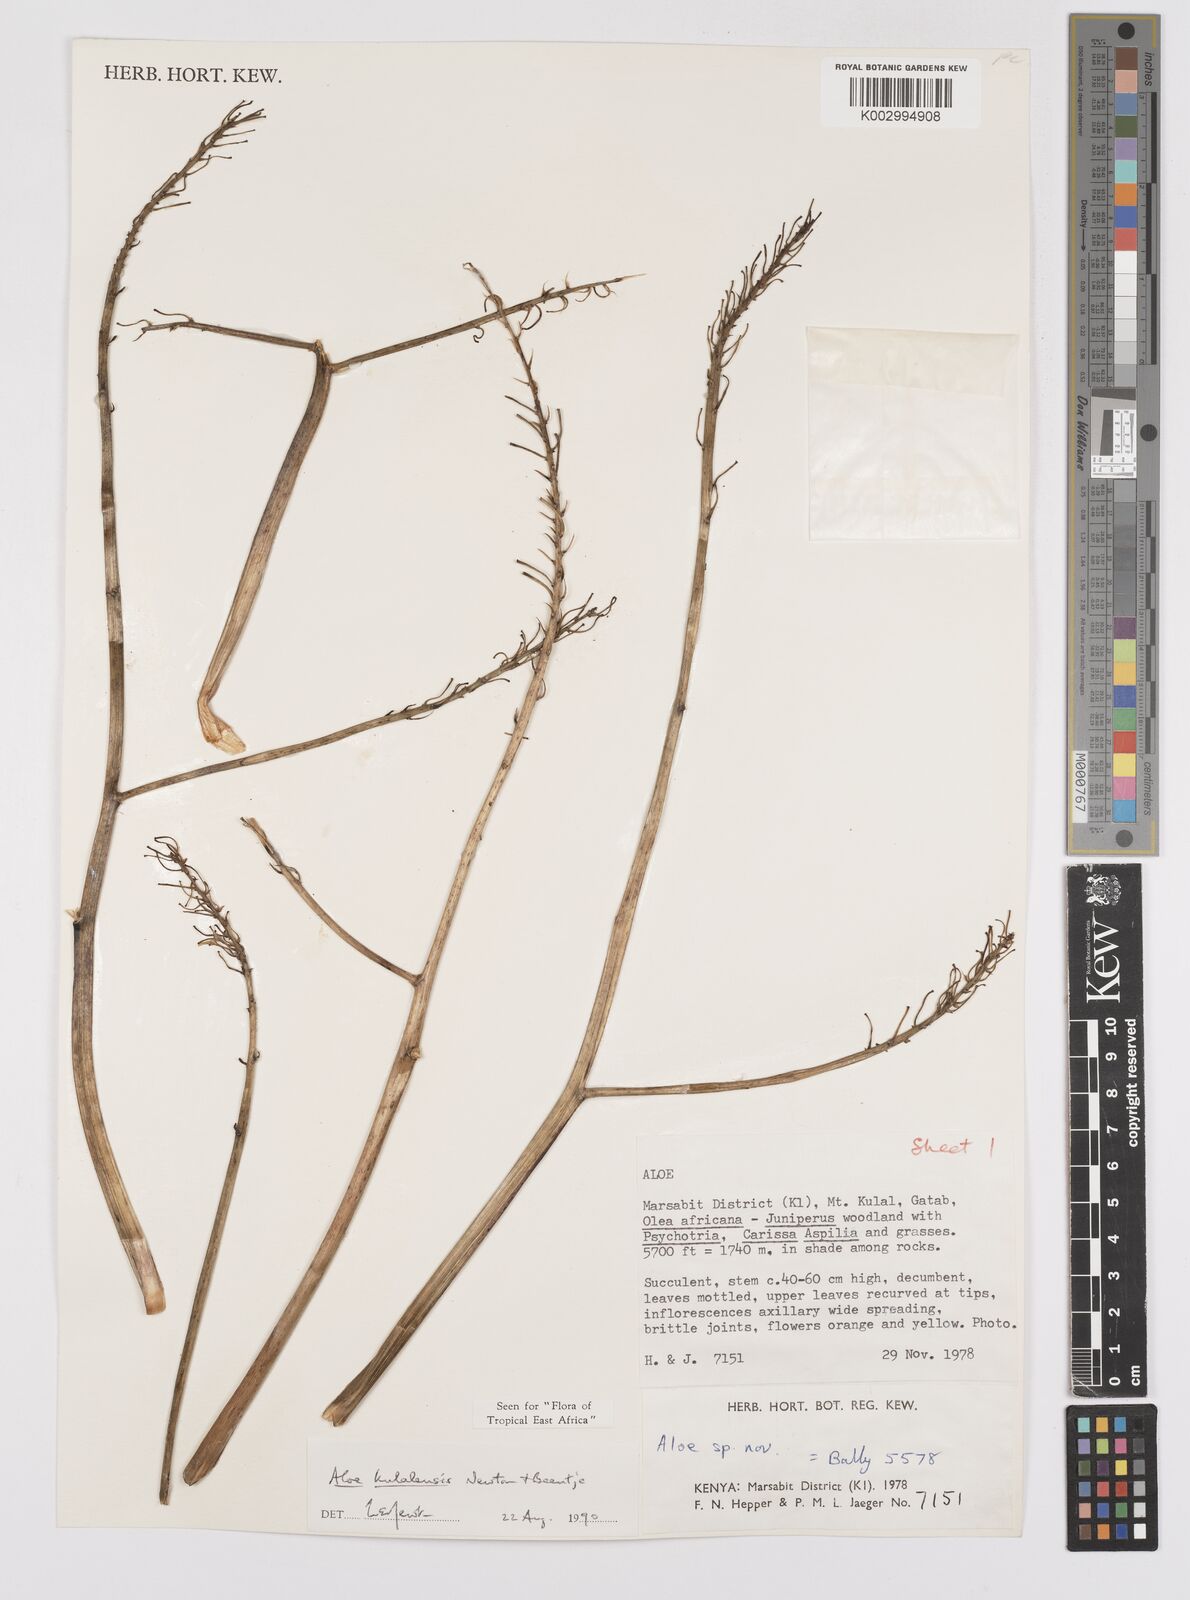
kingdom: Plantae
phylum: Tracheophyta
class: Liliopsida
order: Asparagales
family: Asphodelaceae
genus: Aloe
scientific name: Aloe kulalensis
